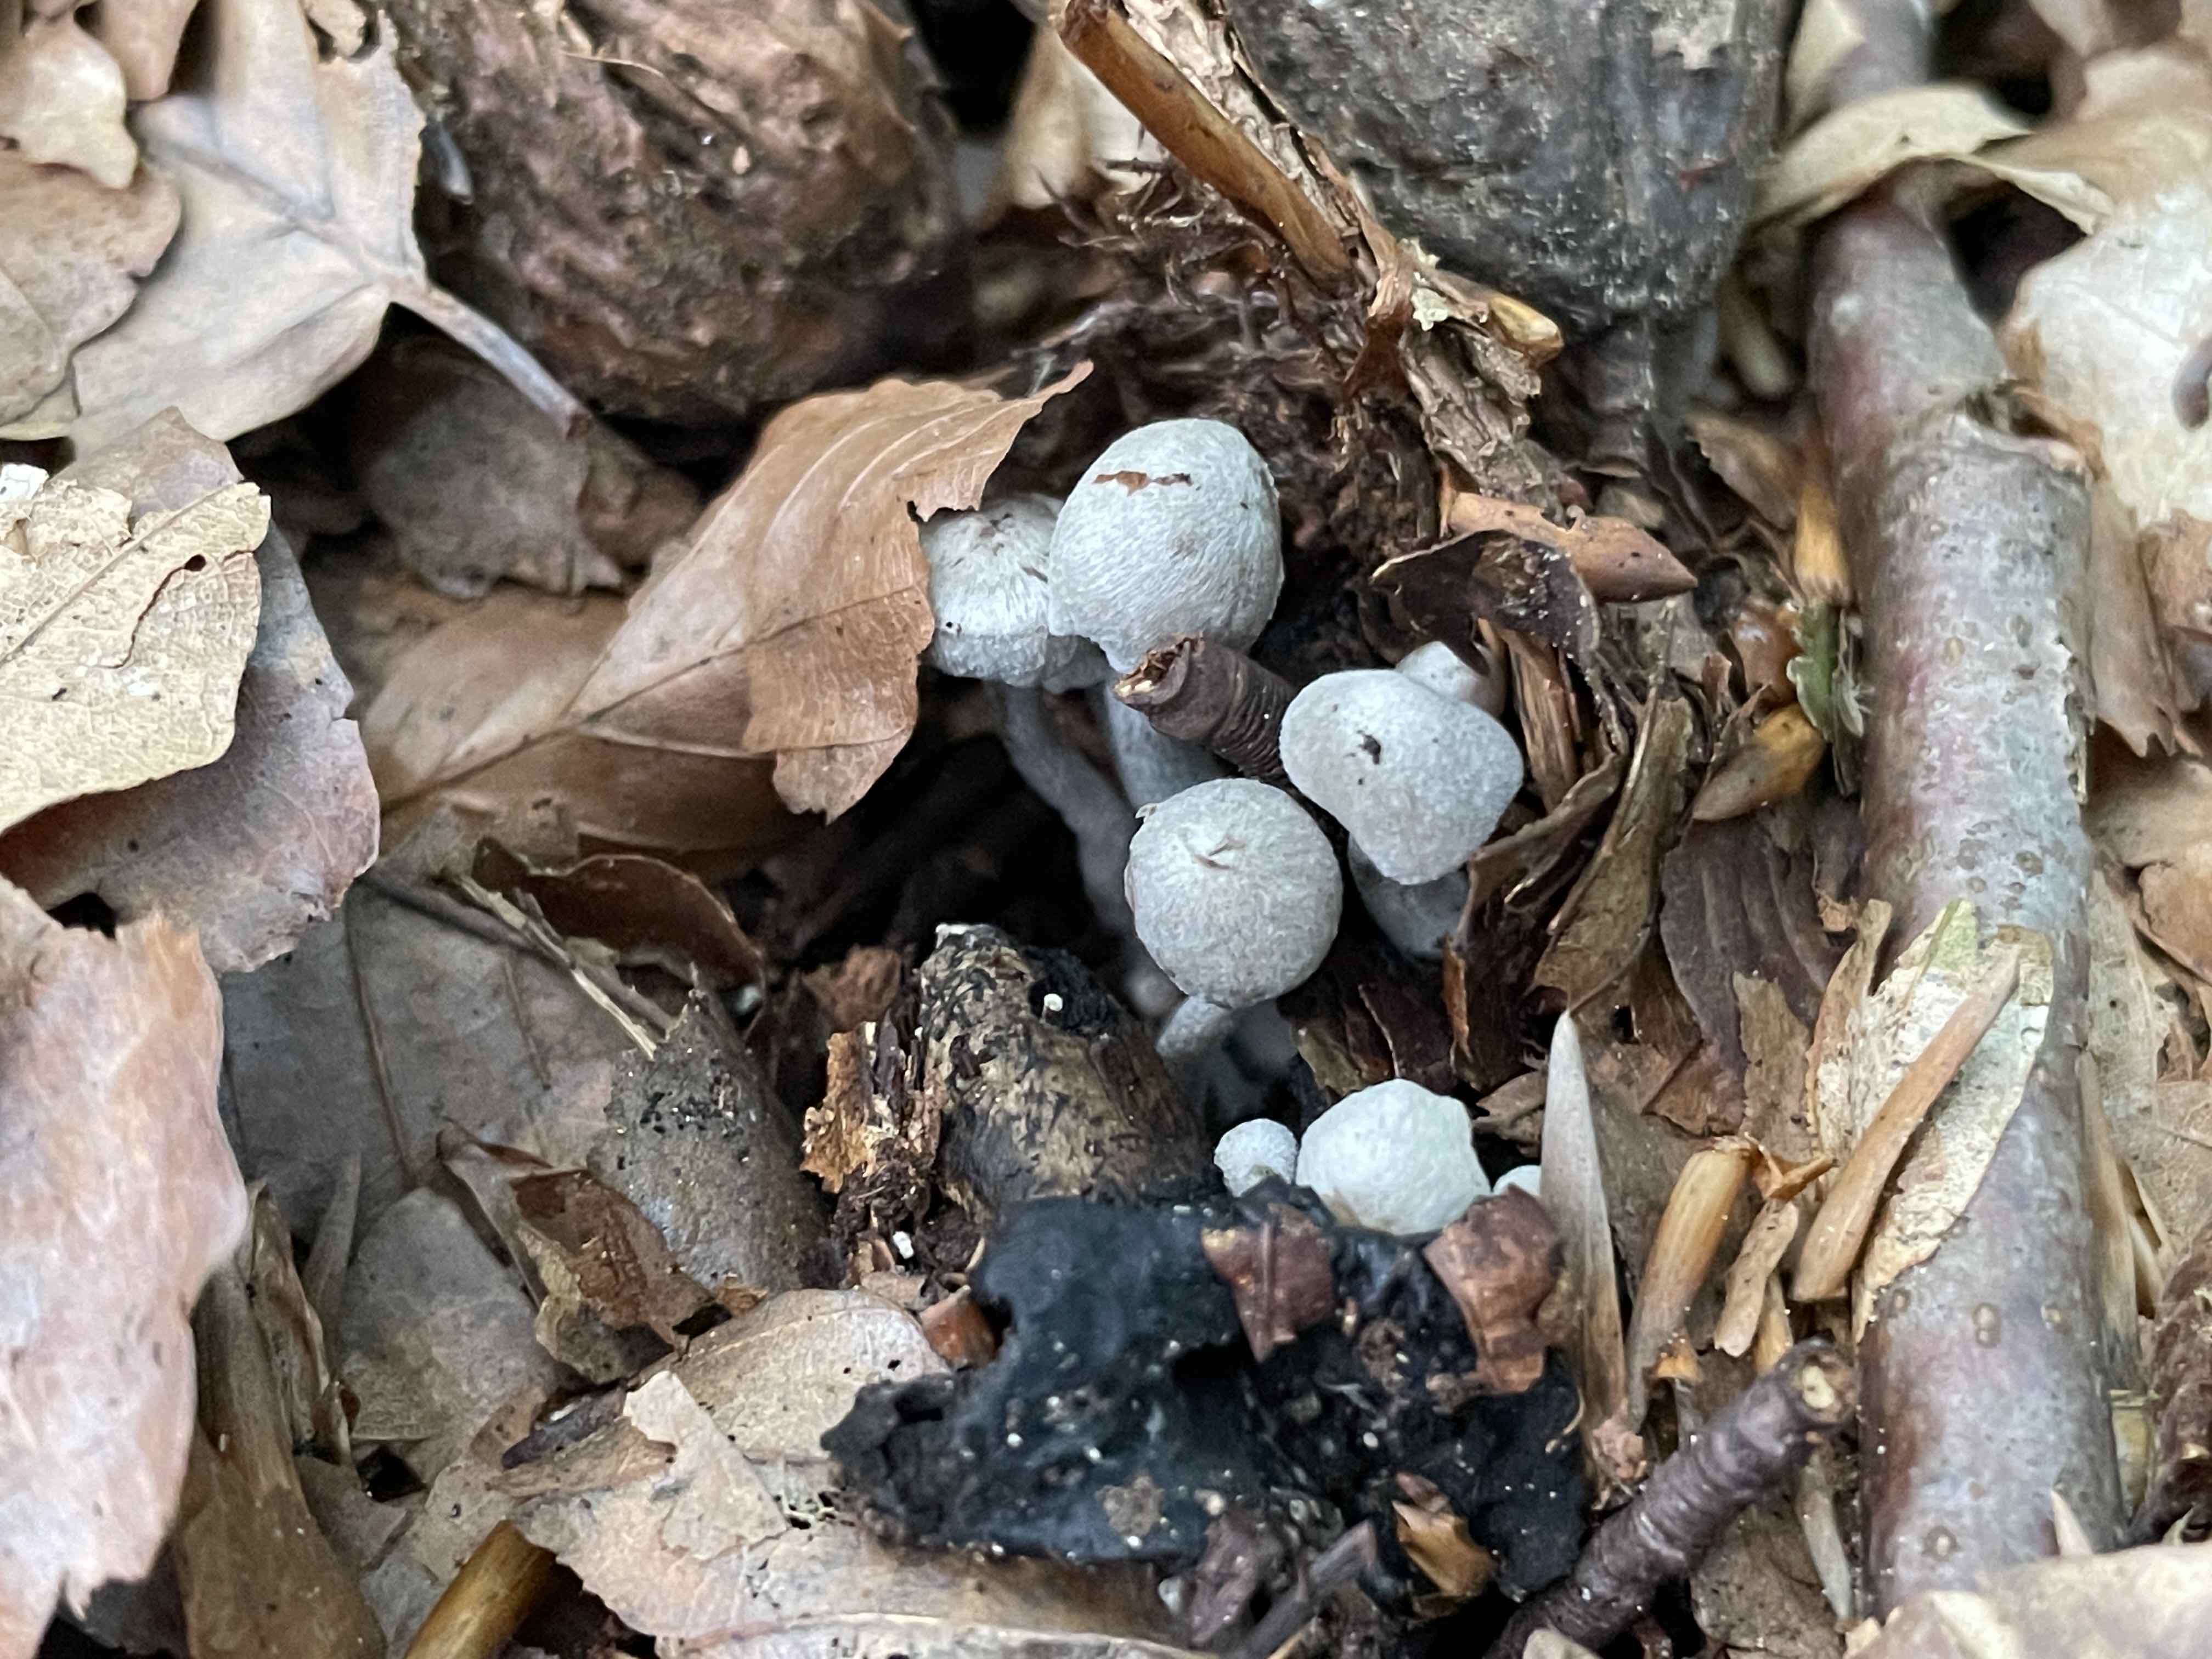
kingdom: Fungi
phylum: Basidiomycota
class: Agaricomycetes
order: Agaricales
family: Lyophyllaceae
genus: Asterophora
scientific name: Asterophora parasitica
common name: grå snyltehat
